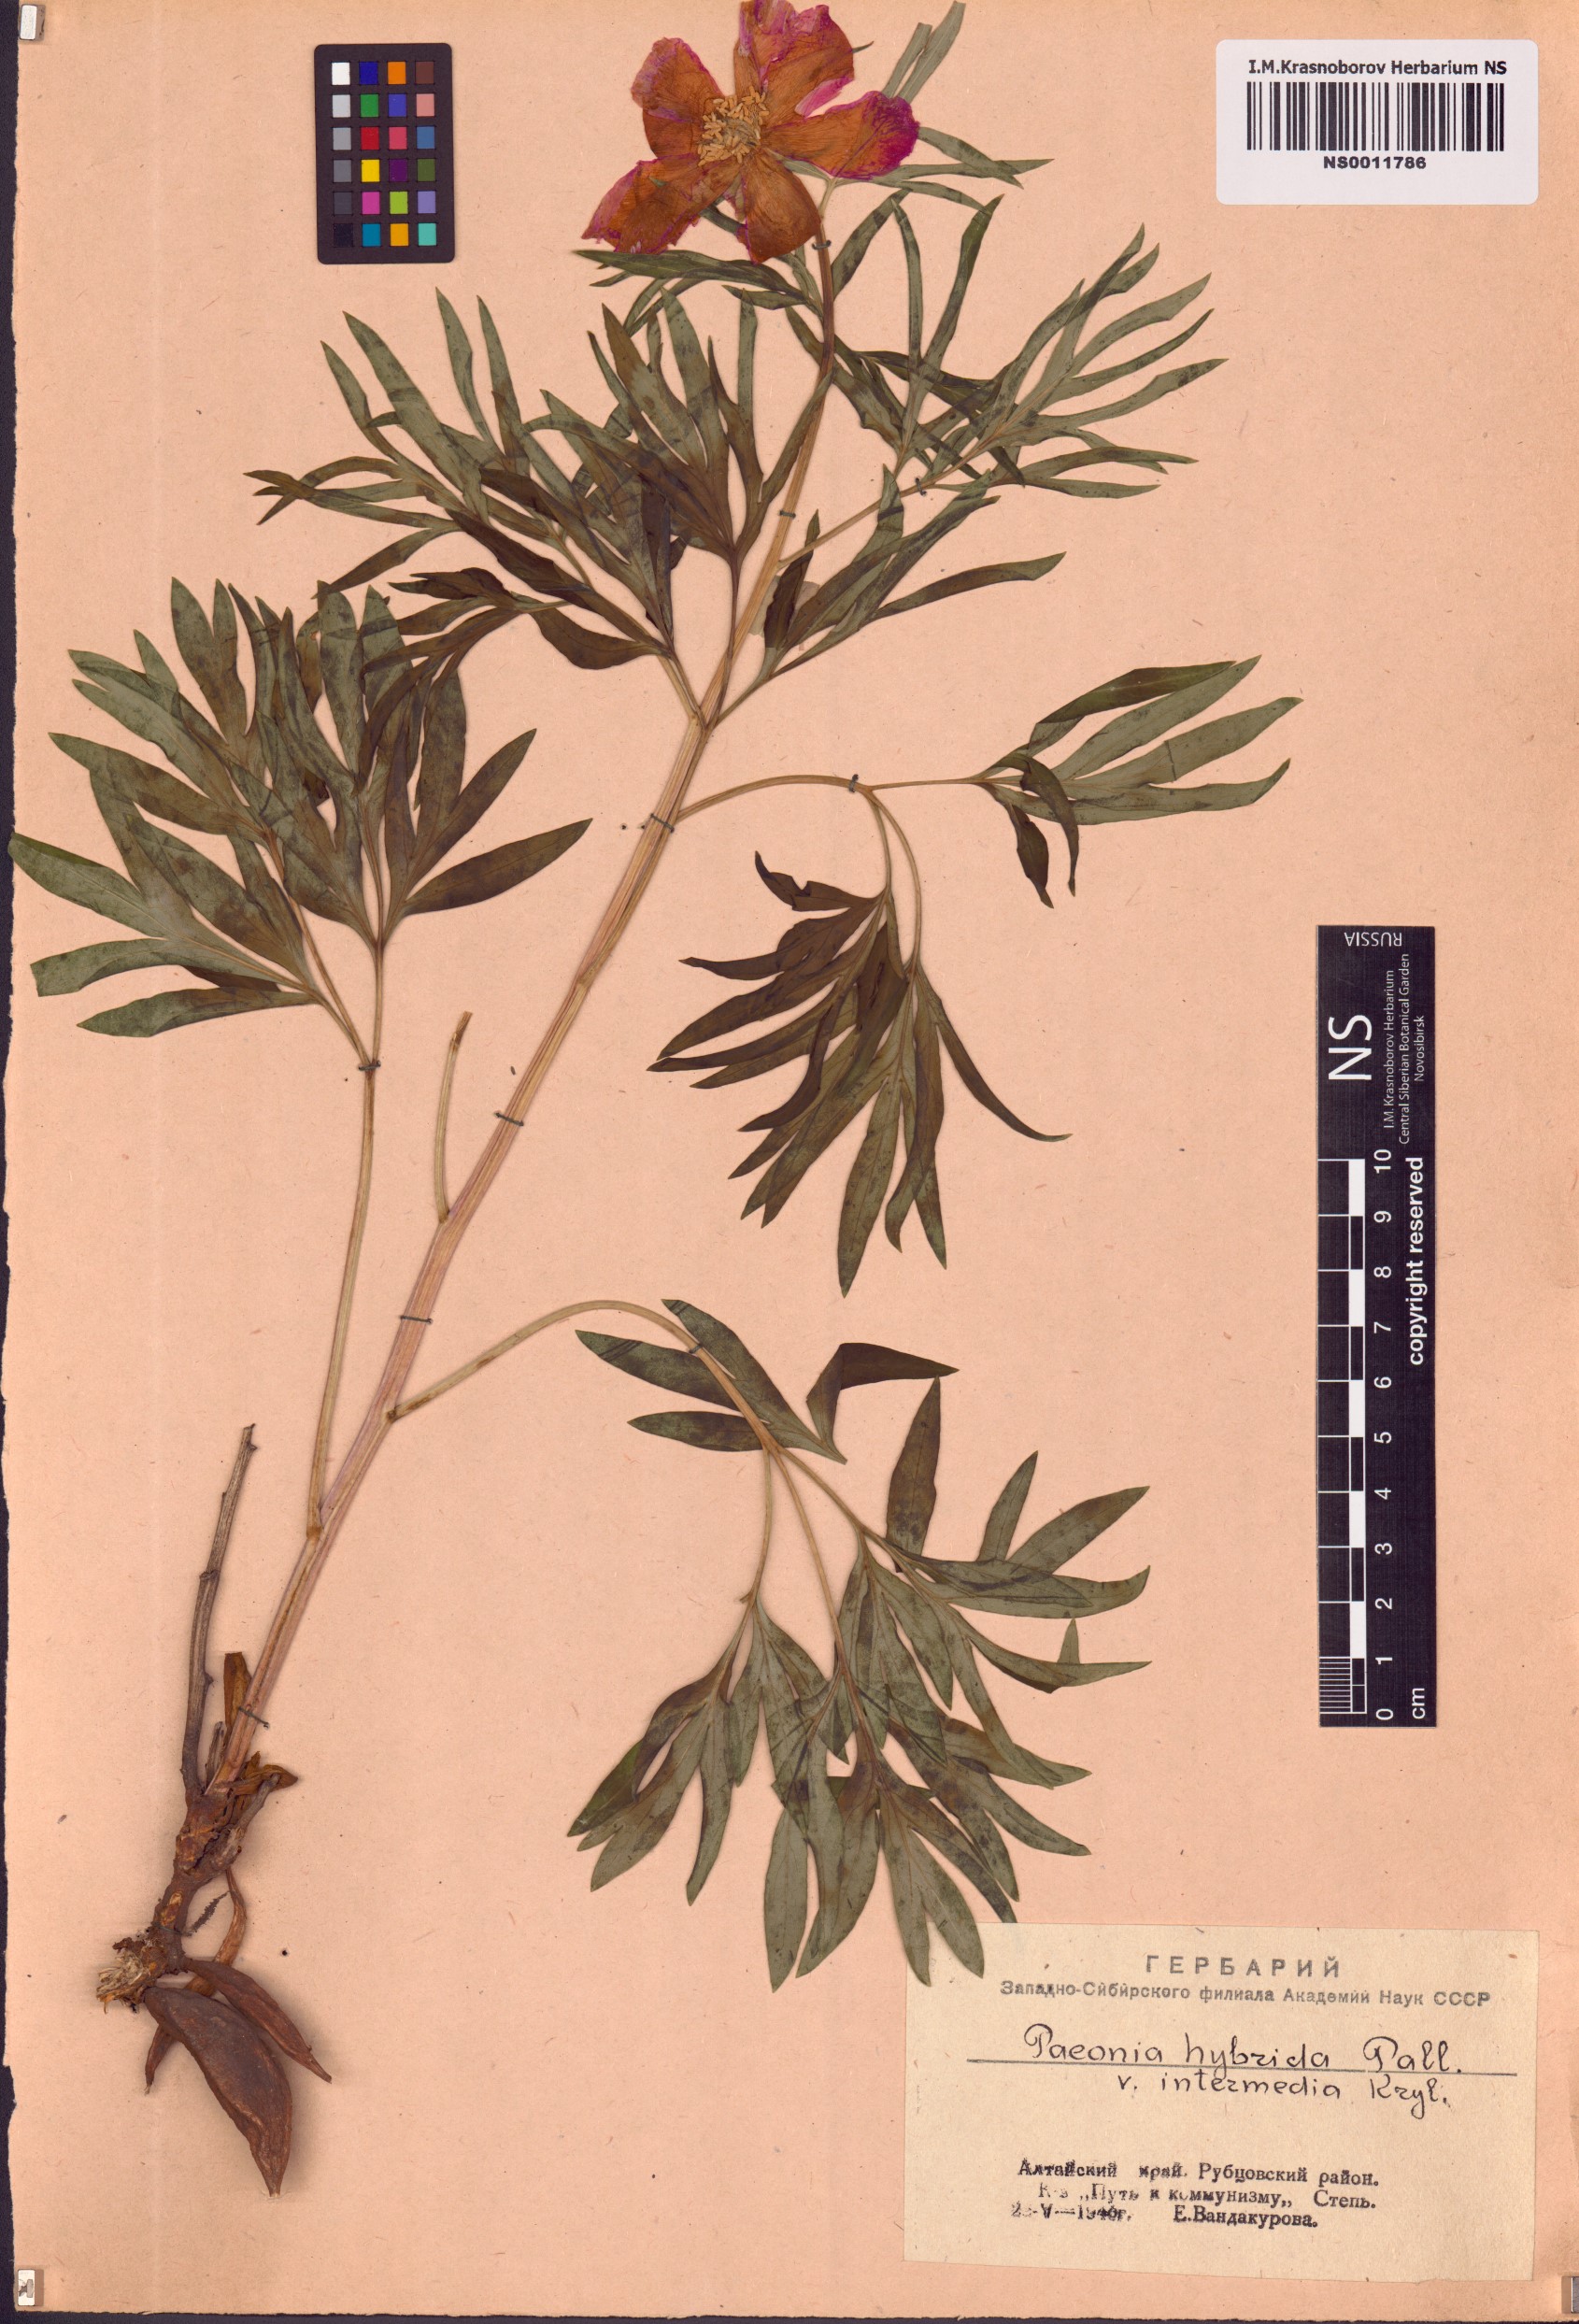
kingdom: Plantae
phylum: Tracheophyta
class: Magnoliopsida
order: Saxifragales
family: Paeoniaceae
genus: Paeonia
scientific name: Paeonia
